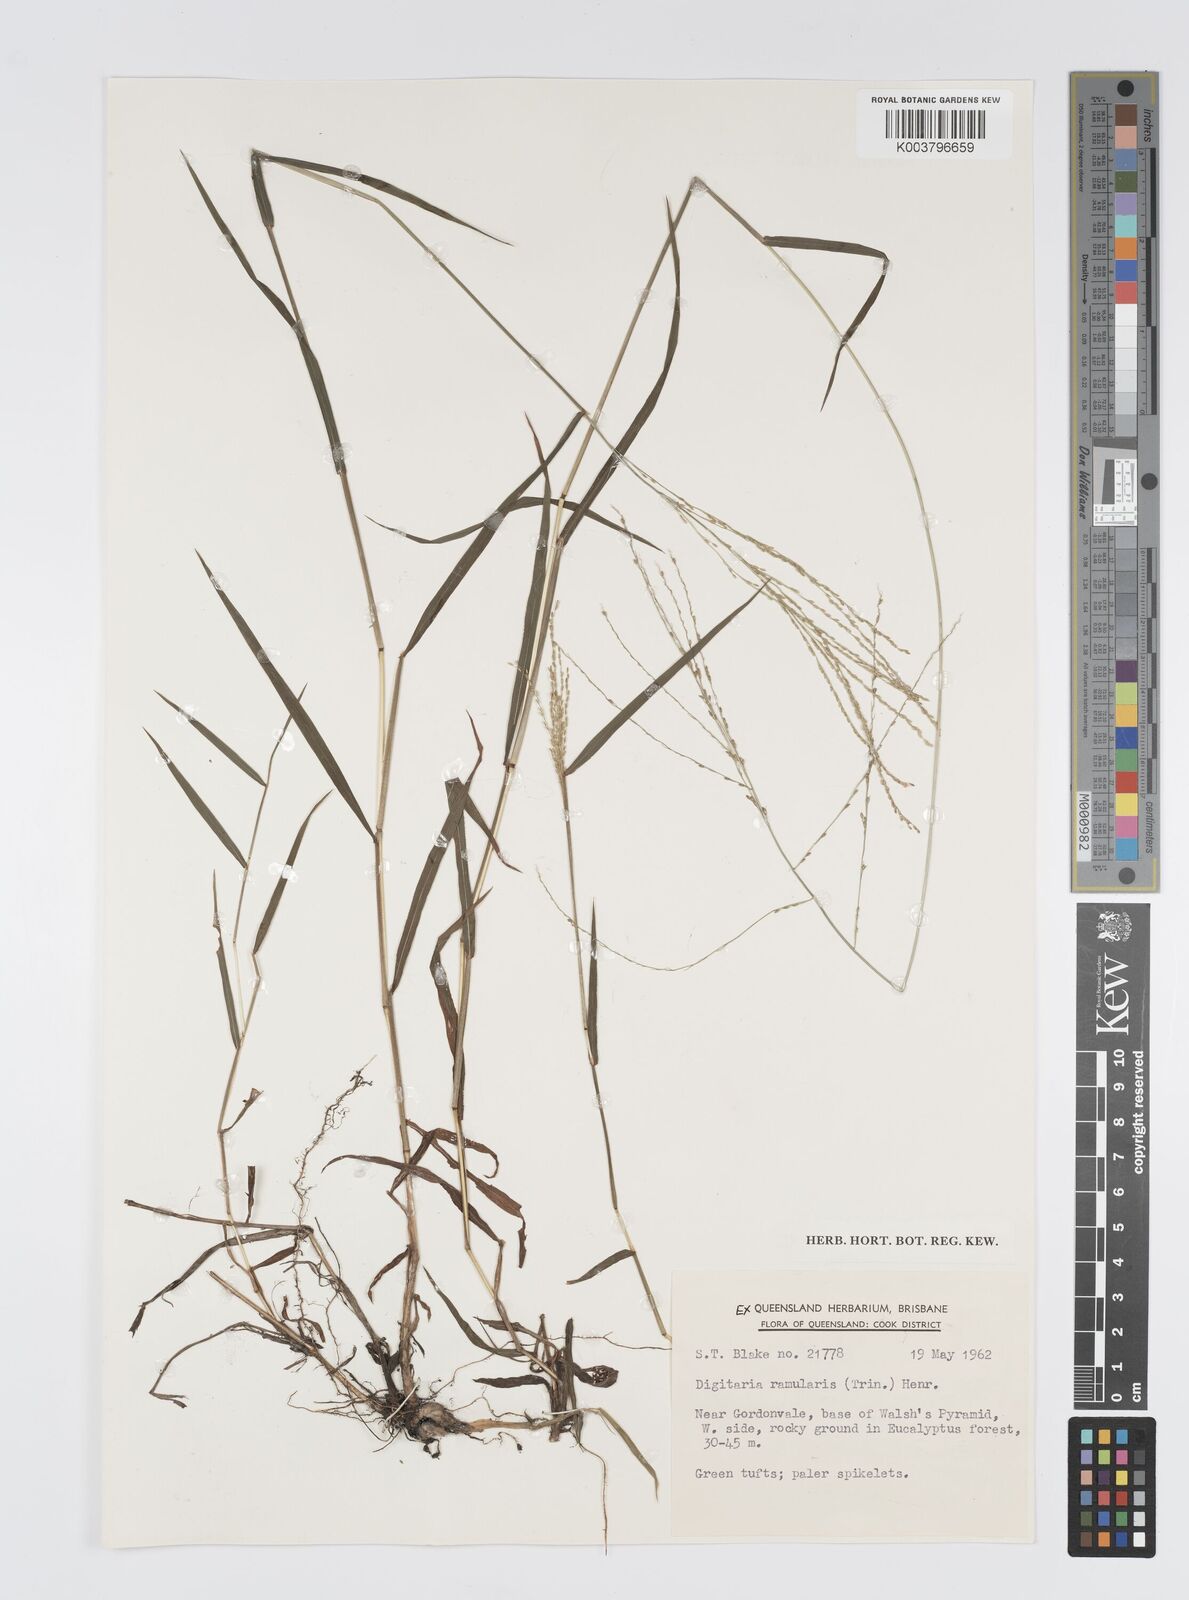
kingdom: Plantae
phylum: Tracheophyta
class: Liliopsida
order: Poales
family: Poaceae
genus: Digitaria
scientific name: Digitaria ramularis
